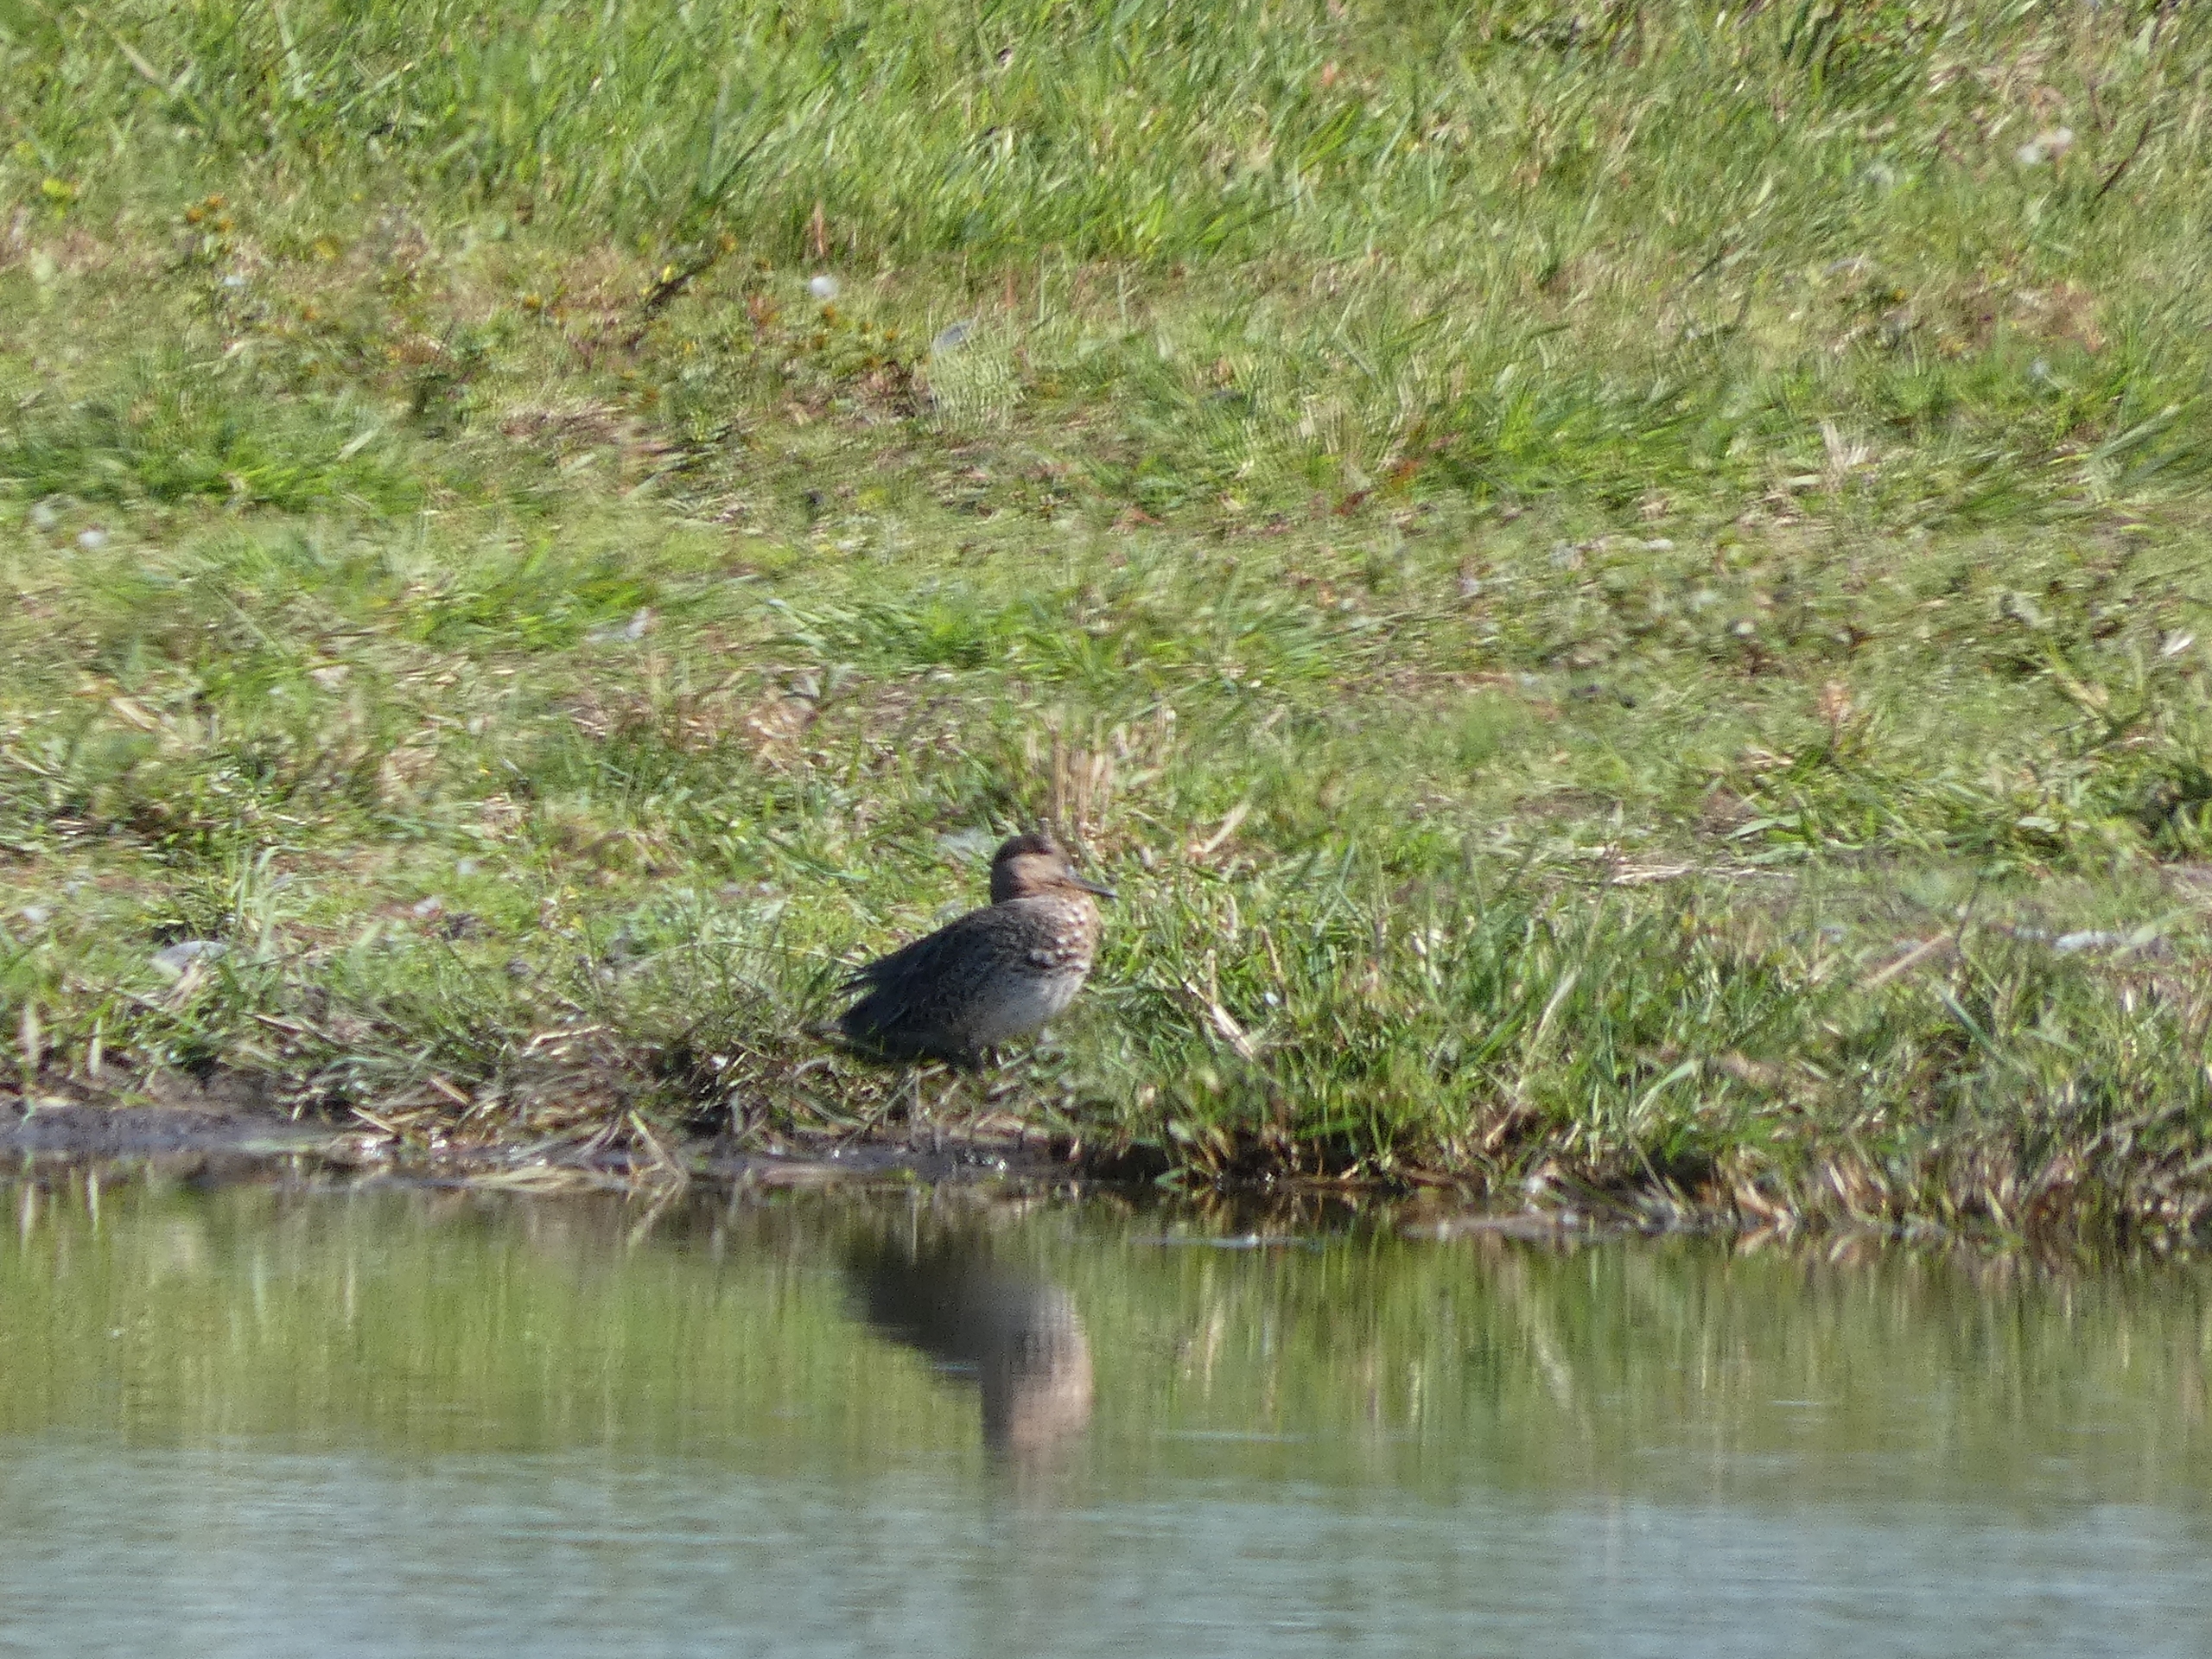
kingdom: Animalia
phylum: Chordata
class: Aves
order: Anseriformes
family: Anatidae
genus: Anas
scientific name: Anas crecca
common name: Krikand
